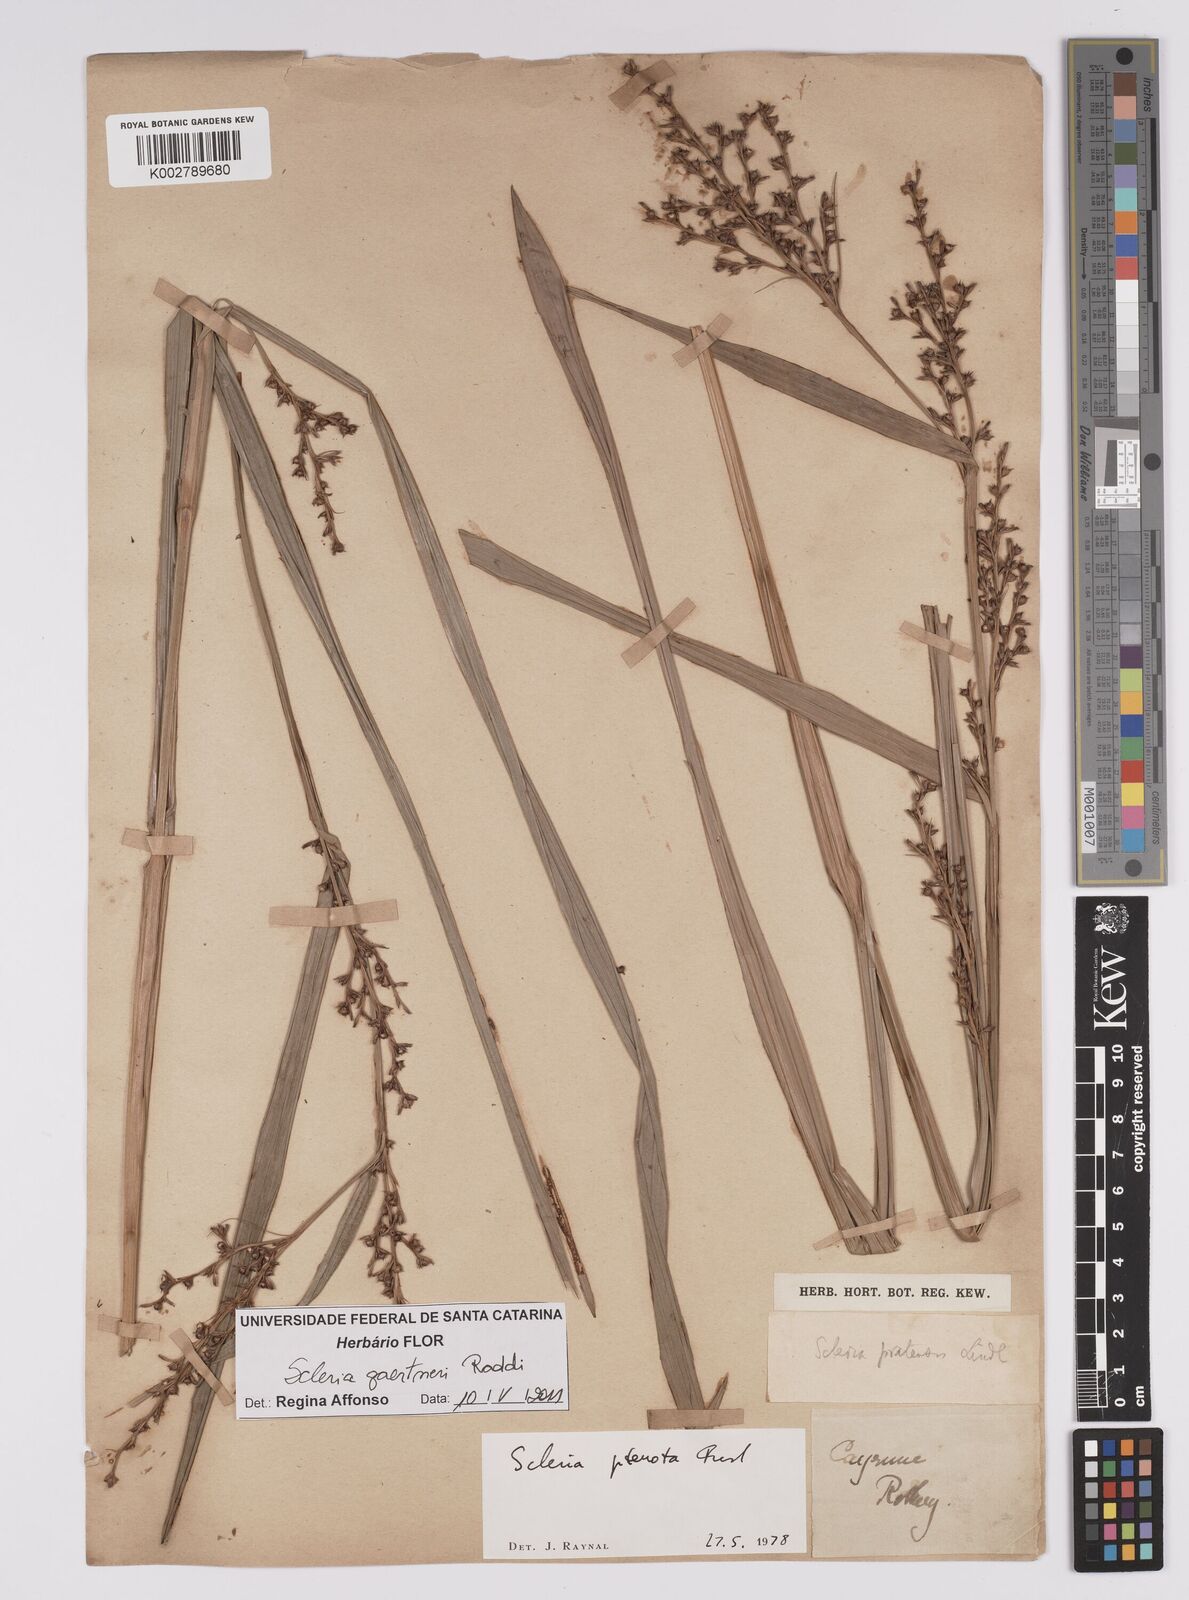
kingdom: Plantae
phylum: Tracheophyta
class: Liliopsida
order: Poales
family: Cyperaceae
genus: Scleria
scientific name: Scleria gaertneri
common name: Cortadera blanca
